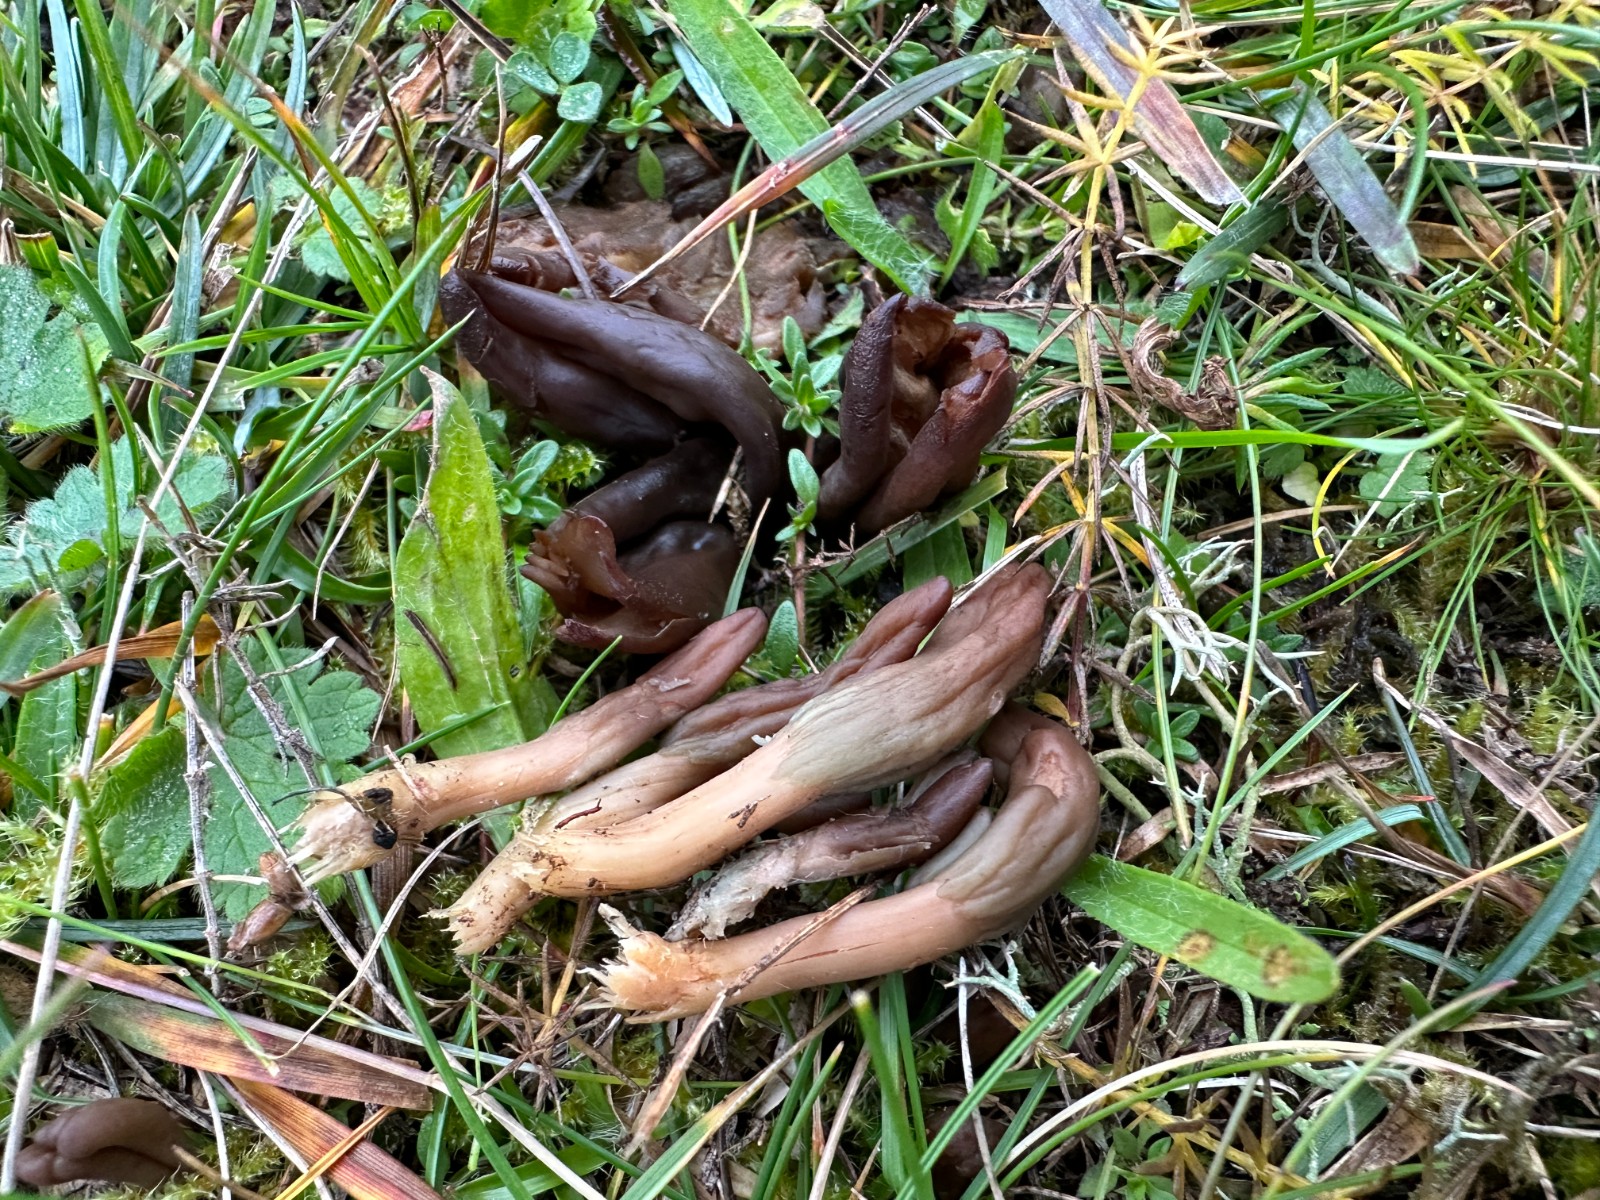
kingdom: Fungi
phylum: Ascomycota
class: Leotiomycetes
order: Leotiales
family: Leotiaceae
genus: Microglossum
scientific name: Microglossum olivaceum
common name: olivenbrun farvetunge
